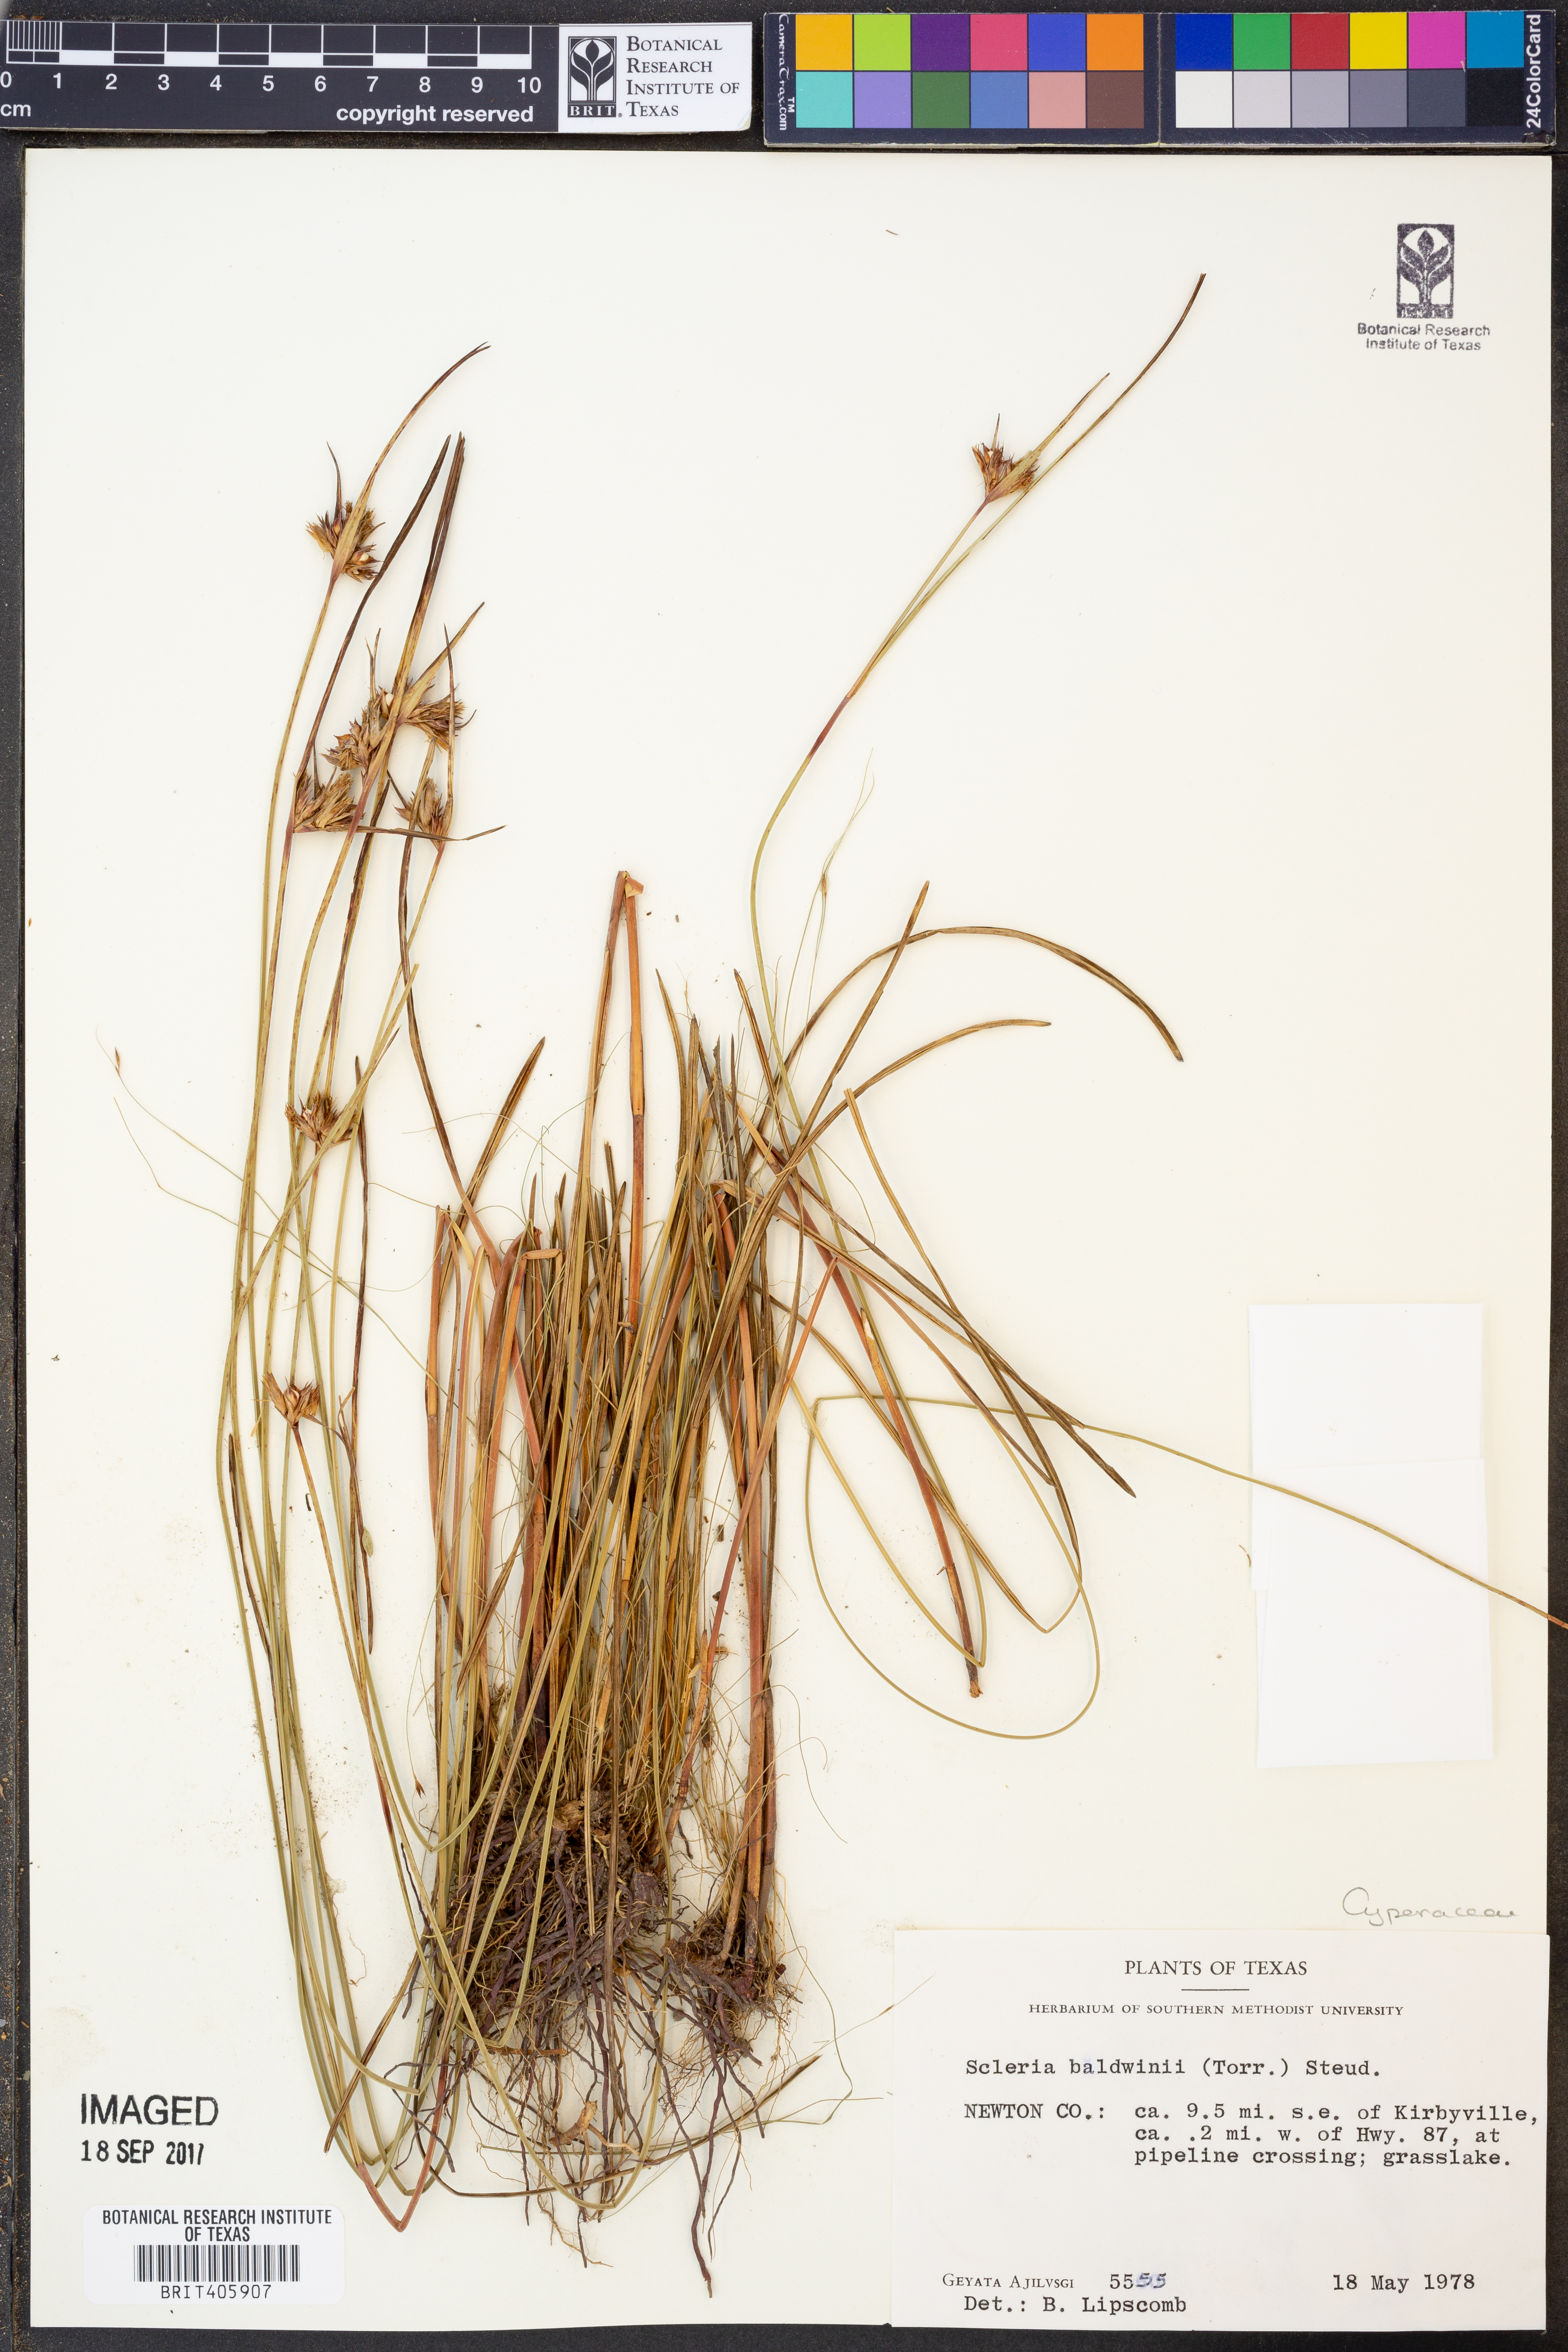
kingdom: Plantae
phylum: Tracheophyta
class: Liliopsida
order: Poales
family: Cyperaceae
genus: Scleria
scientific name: Scleria baldwinii
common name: Baldwin's nutrush
